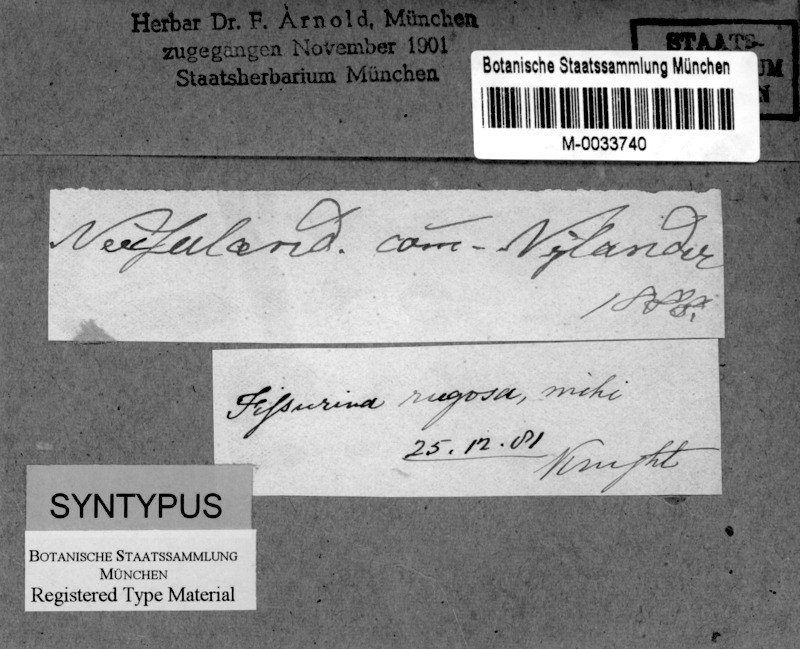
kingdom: Fungi
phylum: Ascomycota
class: Lecanoromycetes
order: Ostropales
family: Graphidaceae
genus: Fissurina
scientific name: Fissurina insidiosa
